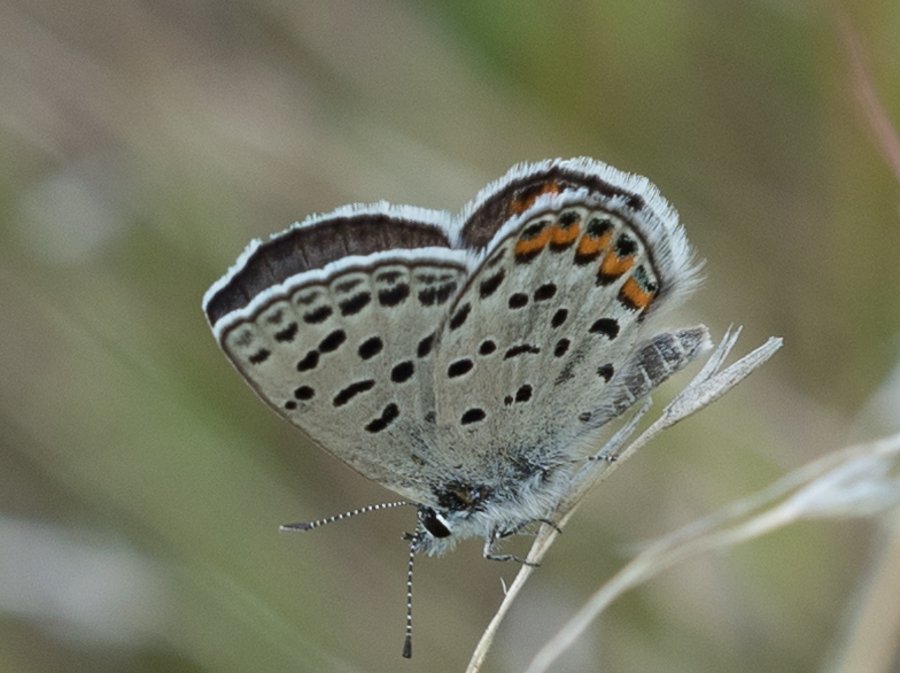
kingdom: Animalia
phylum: Arthropoda
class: Insecta
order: Lepidoptera
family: Lycaenidae
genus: Plebejus
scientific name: Plebejus lupini
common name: Lupine Blue
